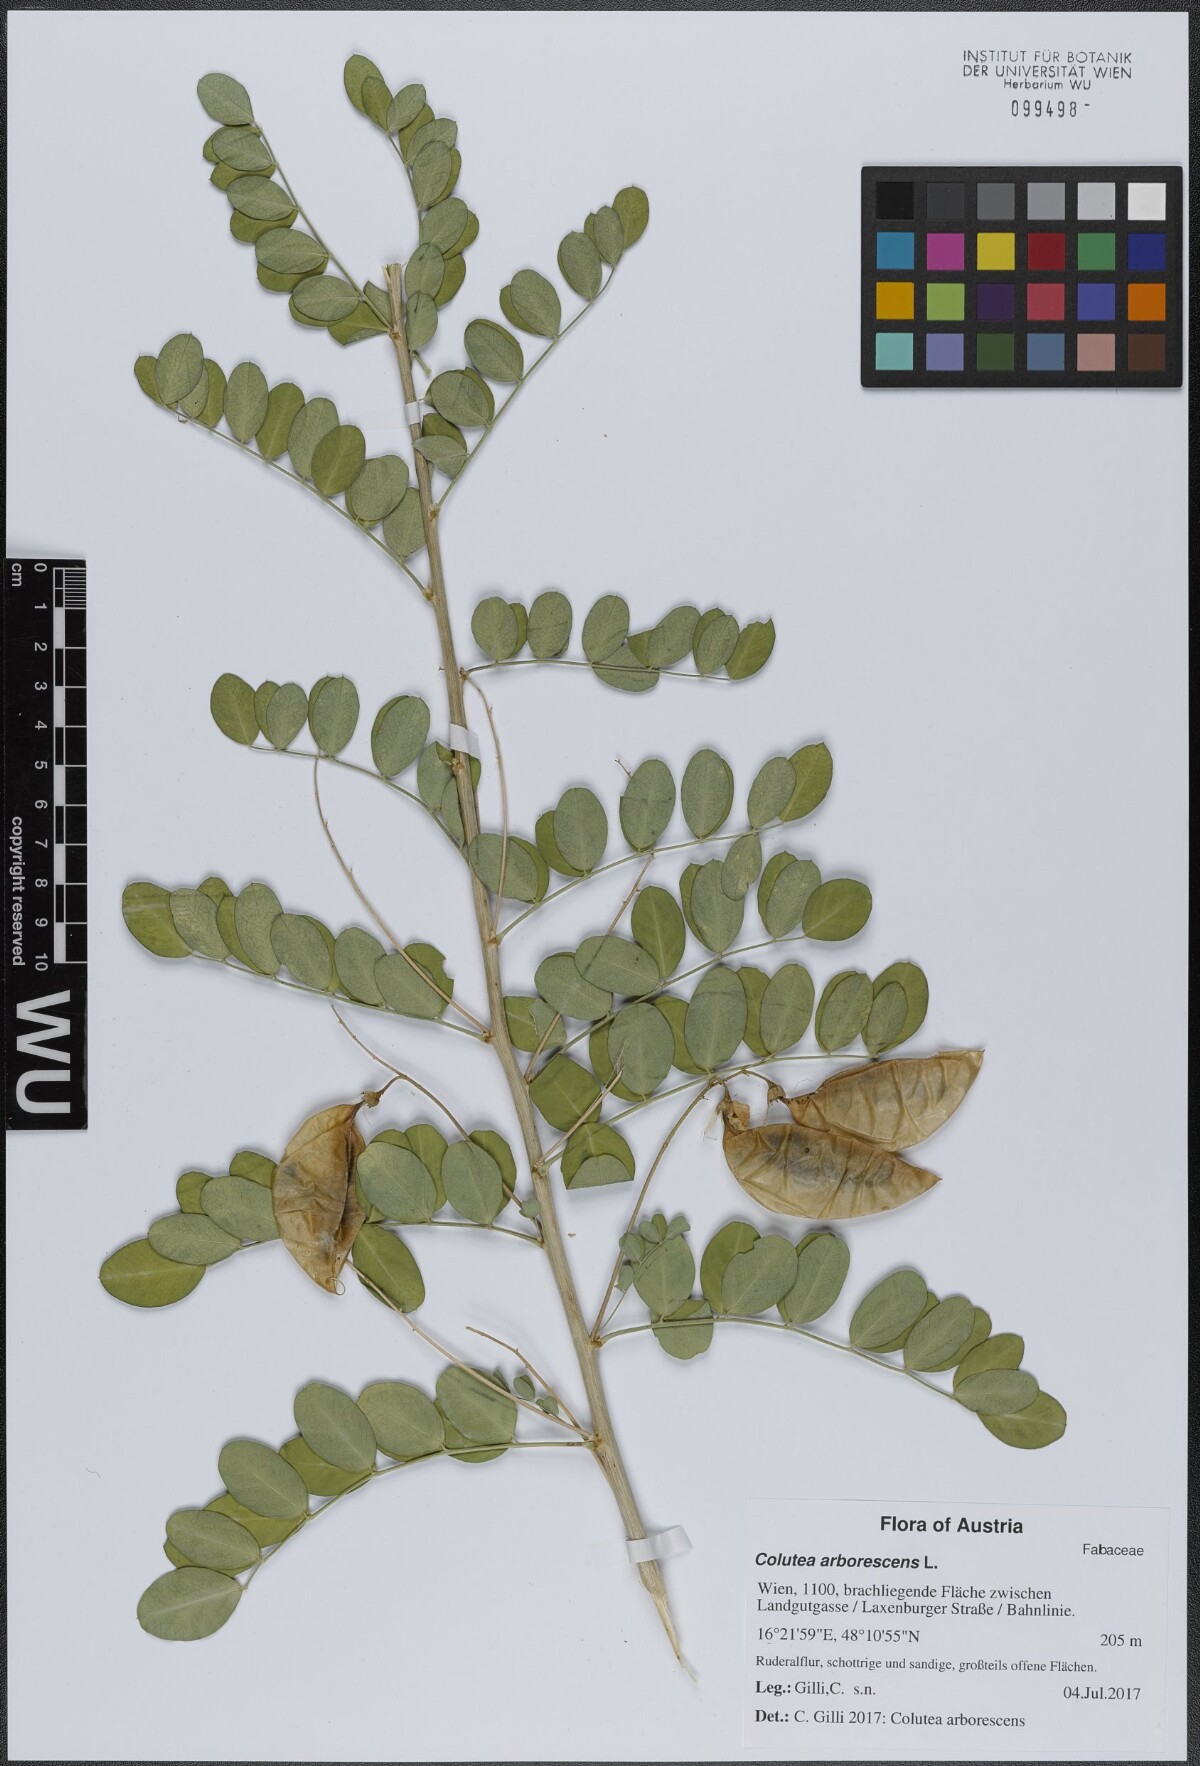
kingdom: Plantae
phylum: Tracheophyta
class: Magnoliopsida
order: Fabales
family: Fabaceae
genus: Colutea
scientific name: Colutea arborescens
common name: Bladder-senna
